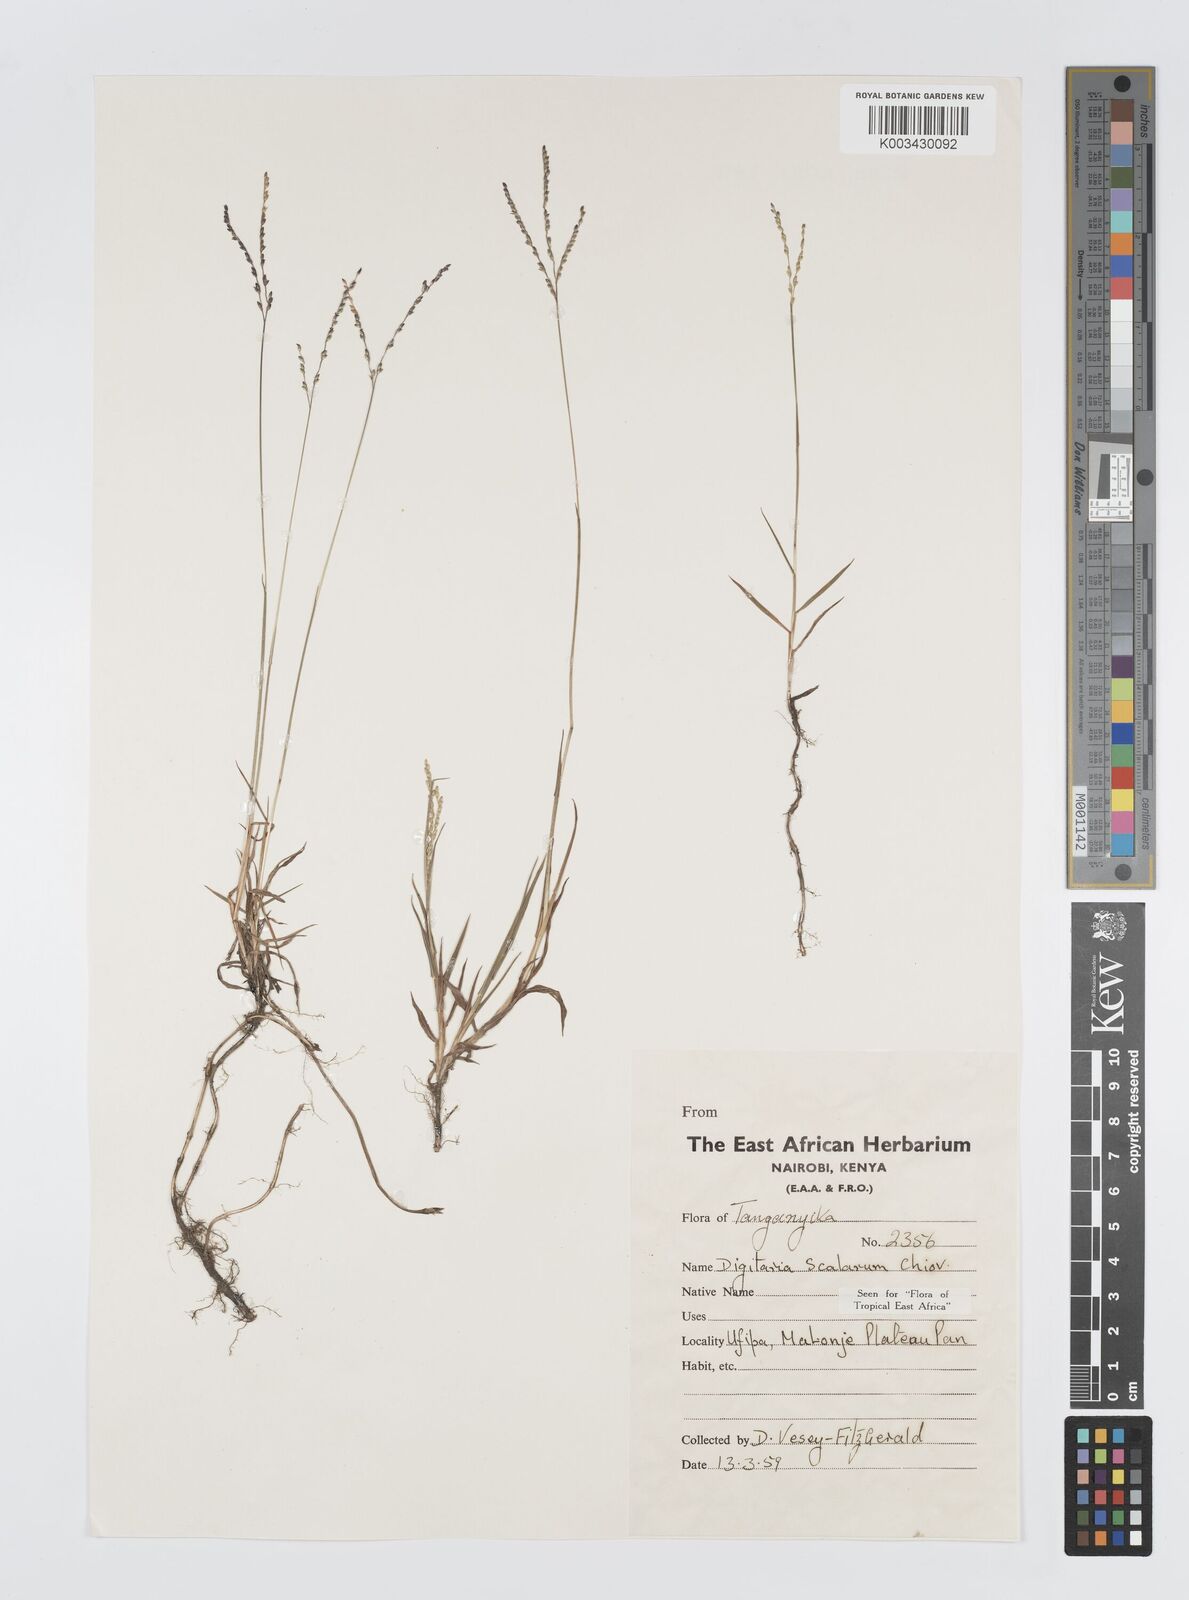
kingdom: Plantae
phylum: Tracheophyta
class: Liliopsida
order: Poales
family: Poaceae
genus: Digitaria
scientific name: Digitaria abyssinica
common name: African couchgrass
